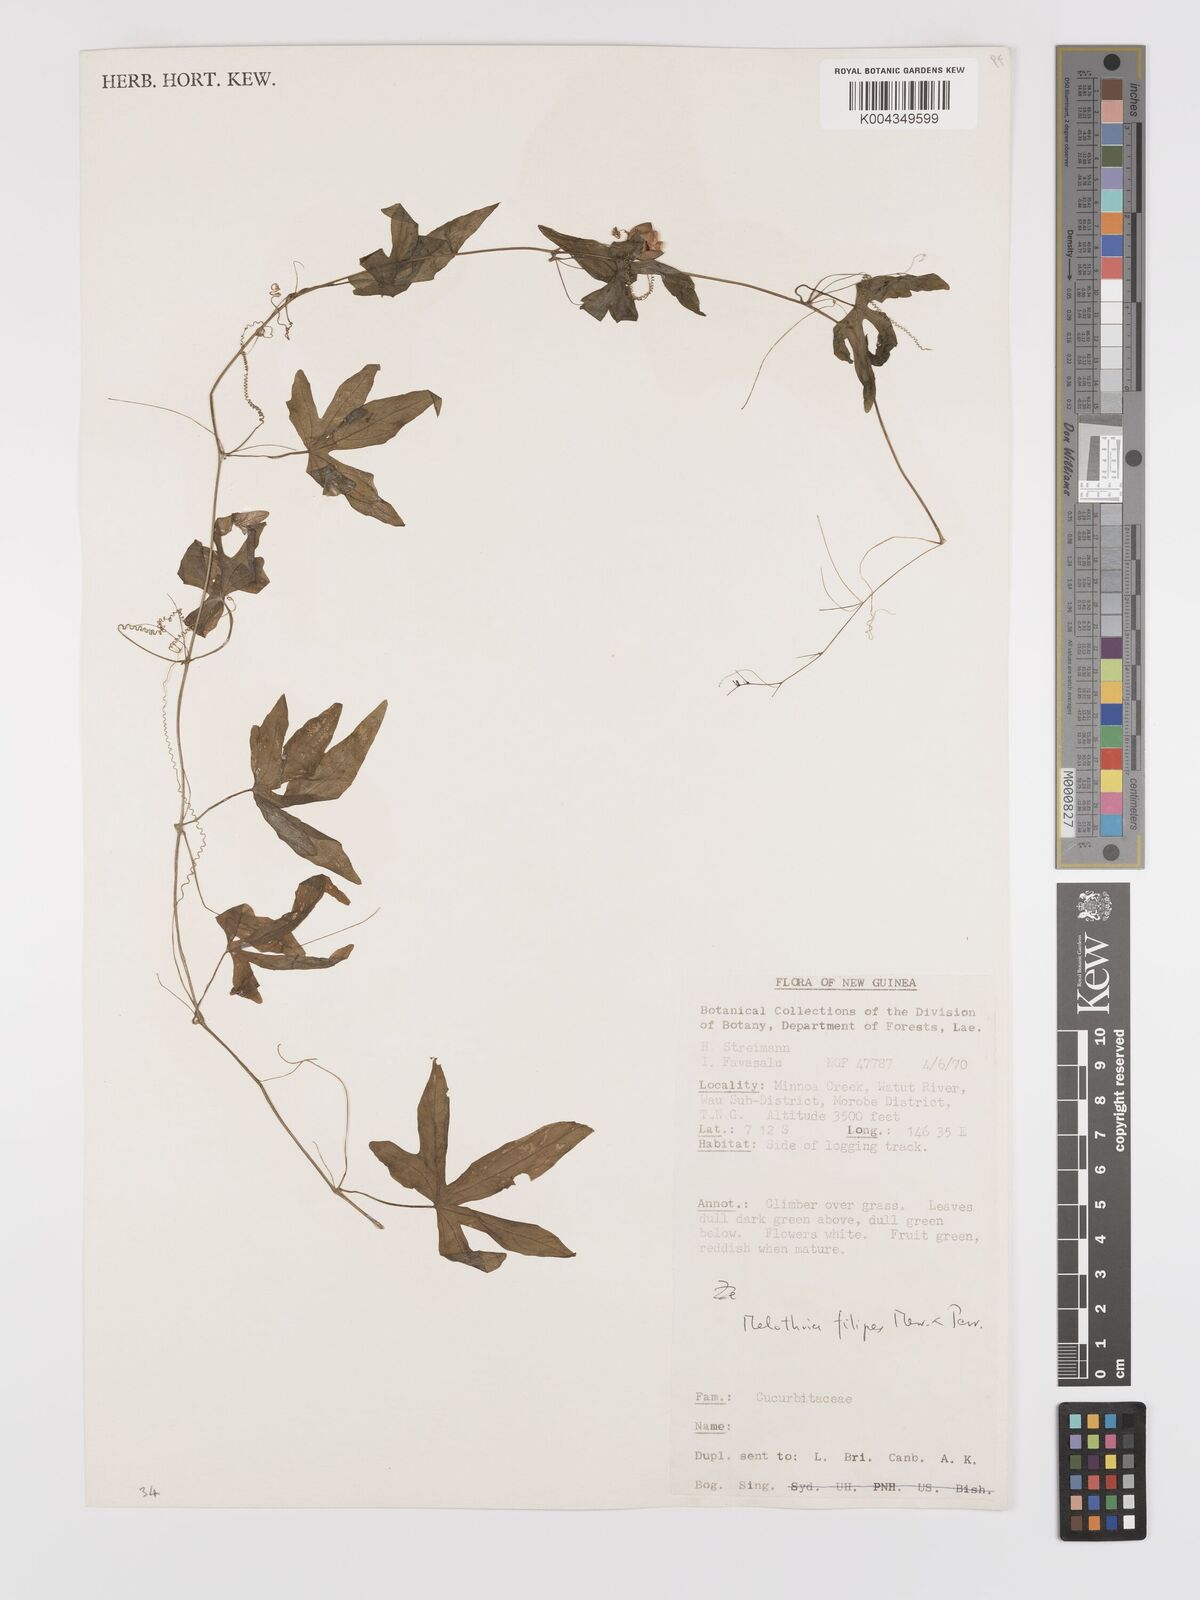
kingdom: Plantae
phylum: Tracheophyta
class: Magnoliopsida
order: Cucurbitales
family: Cucurbitaceae
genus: Zehneria
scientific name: Zehneria filipes
